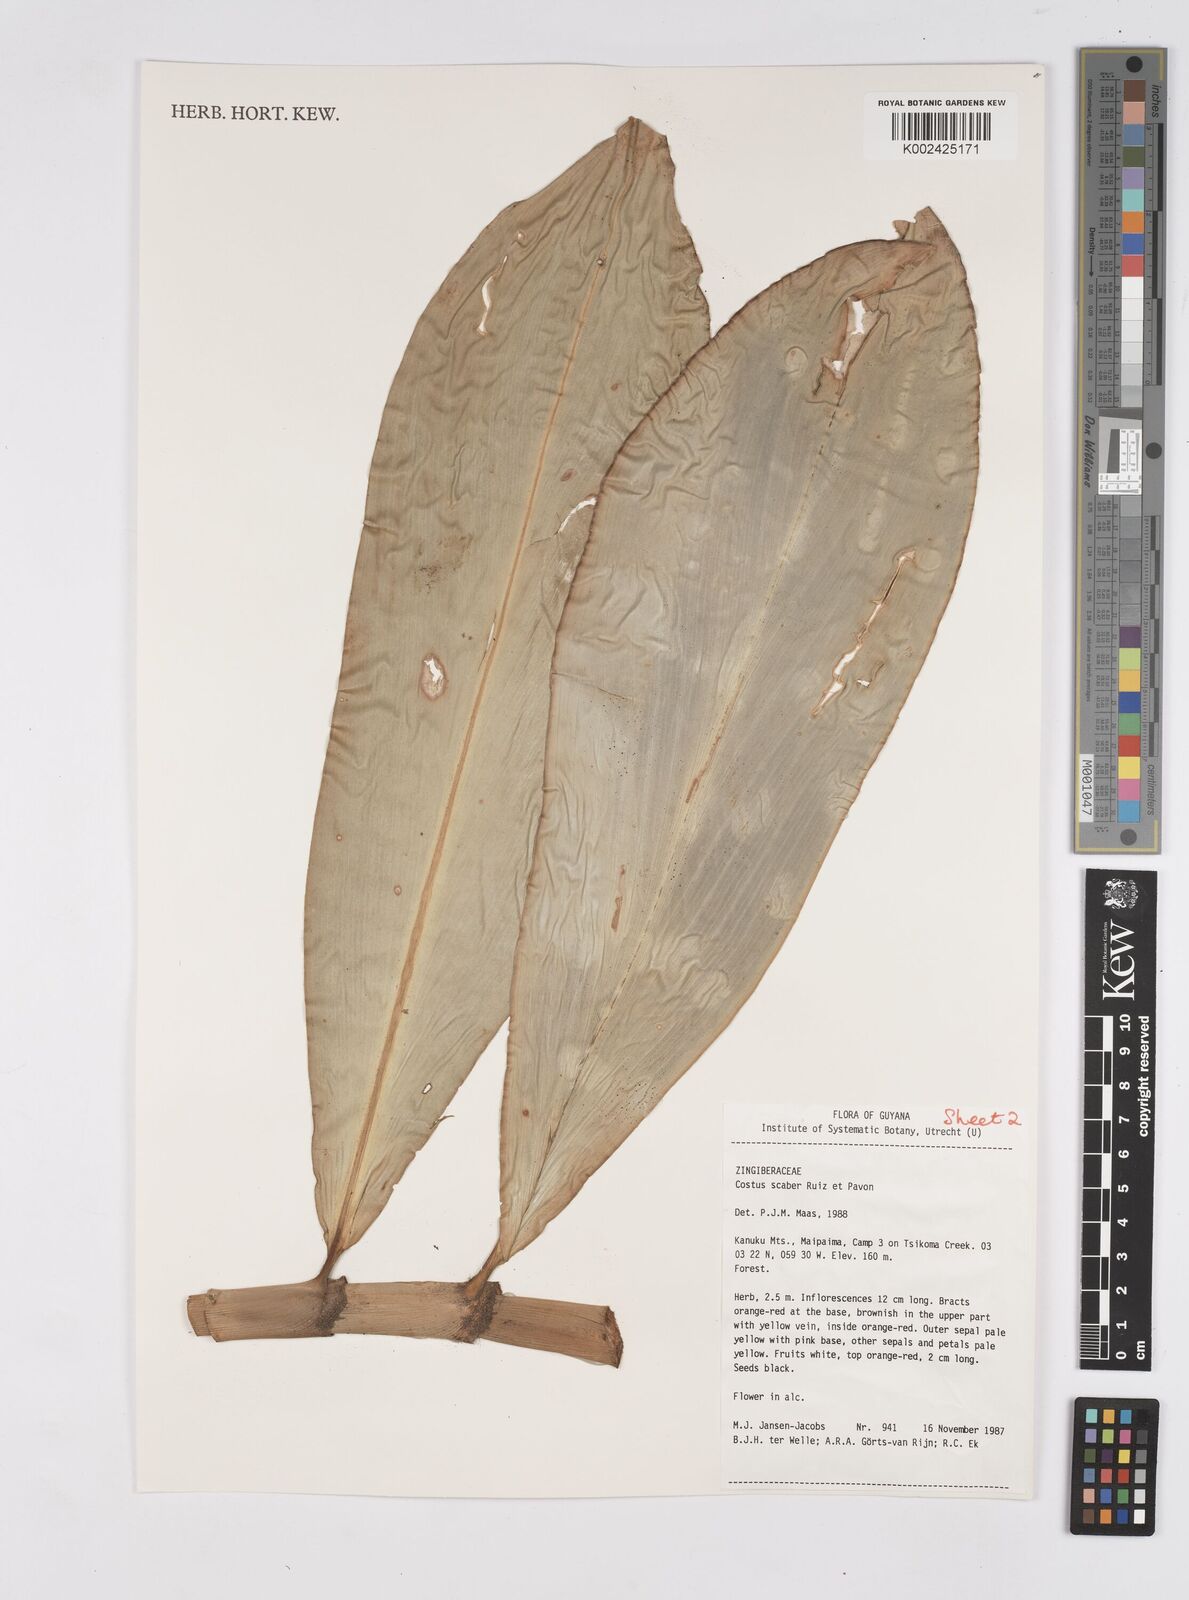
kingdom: Plantae
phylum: Tracheophyta
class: Liliopsida
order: Zingiberales
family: Costaceae
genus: Costus
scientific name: Costus scaber
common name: Spiral head ginger
